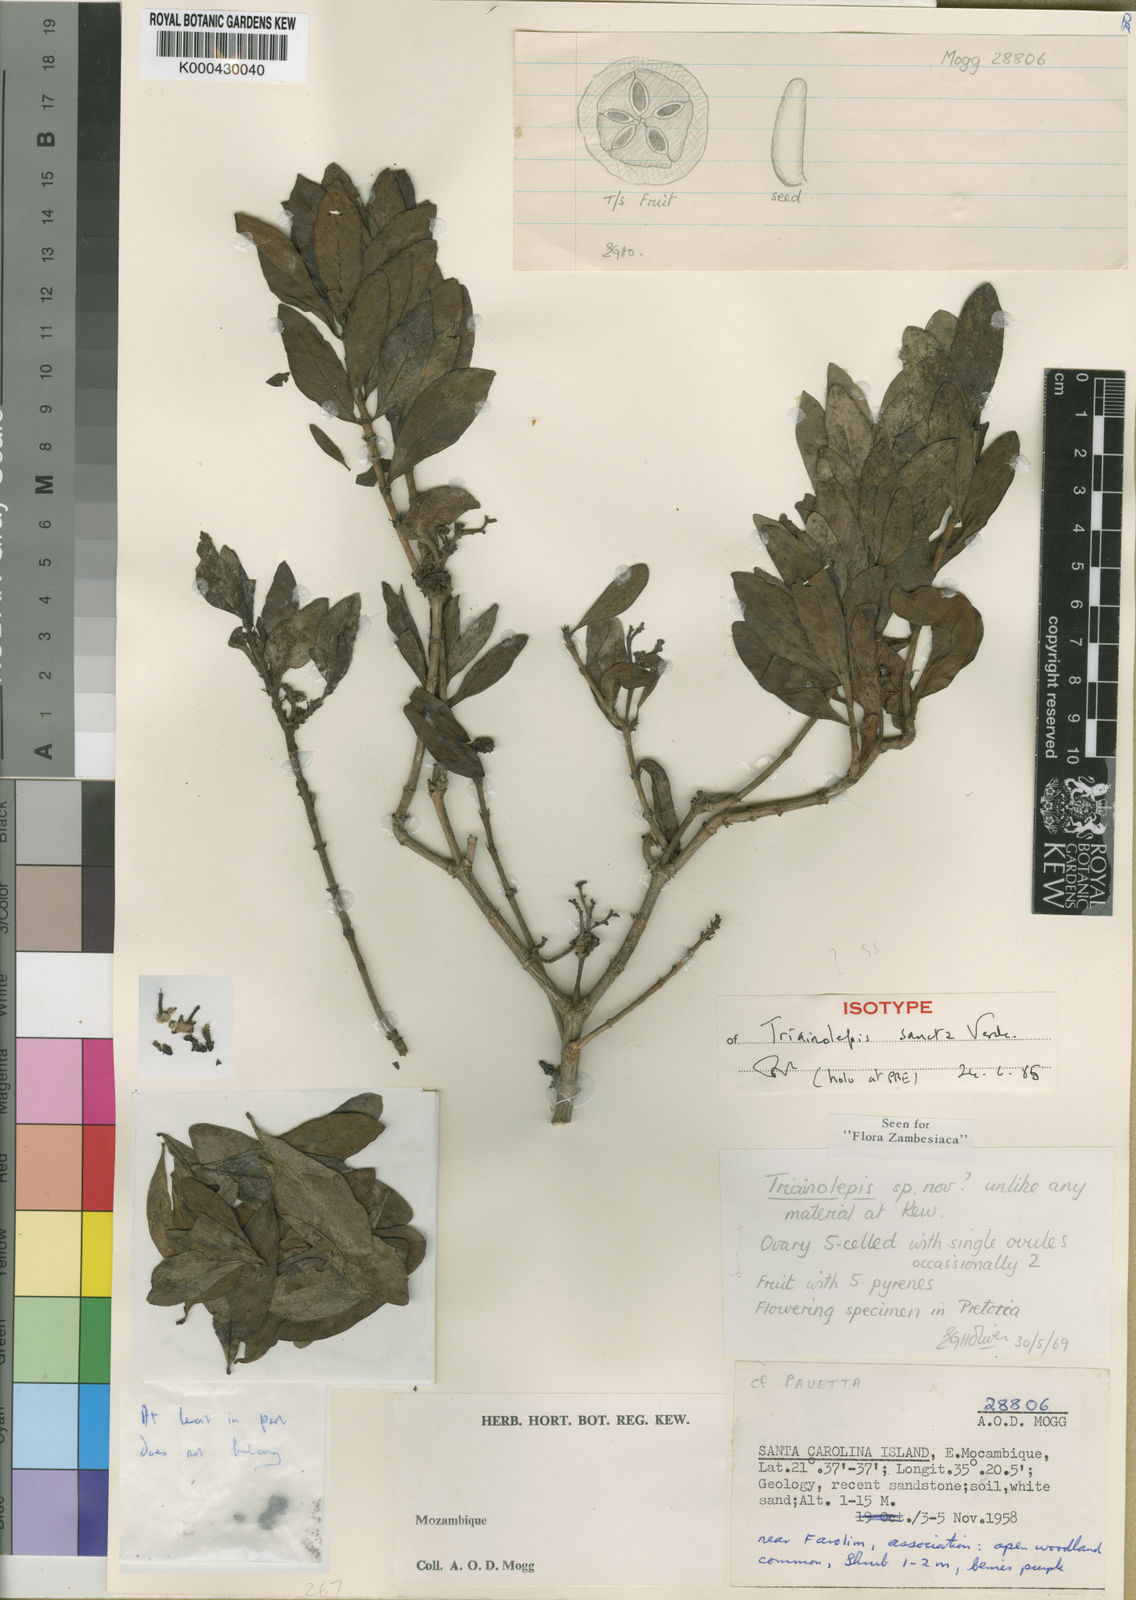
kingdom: Plantae
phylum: Tracheophyta
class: Magnoliopsida
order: Gentianales
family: Rubiaceae
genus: Triainolepis
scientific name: Triainolepis sancta
